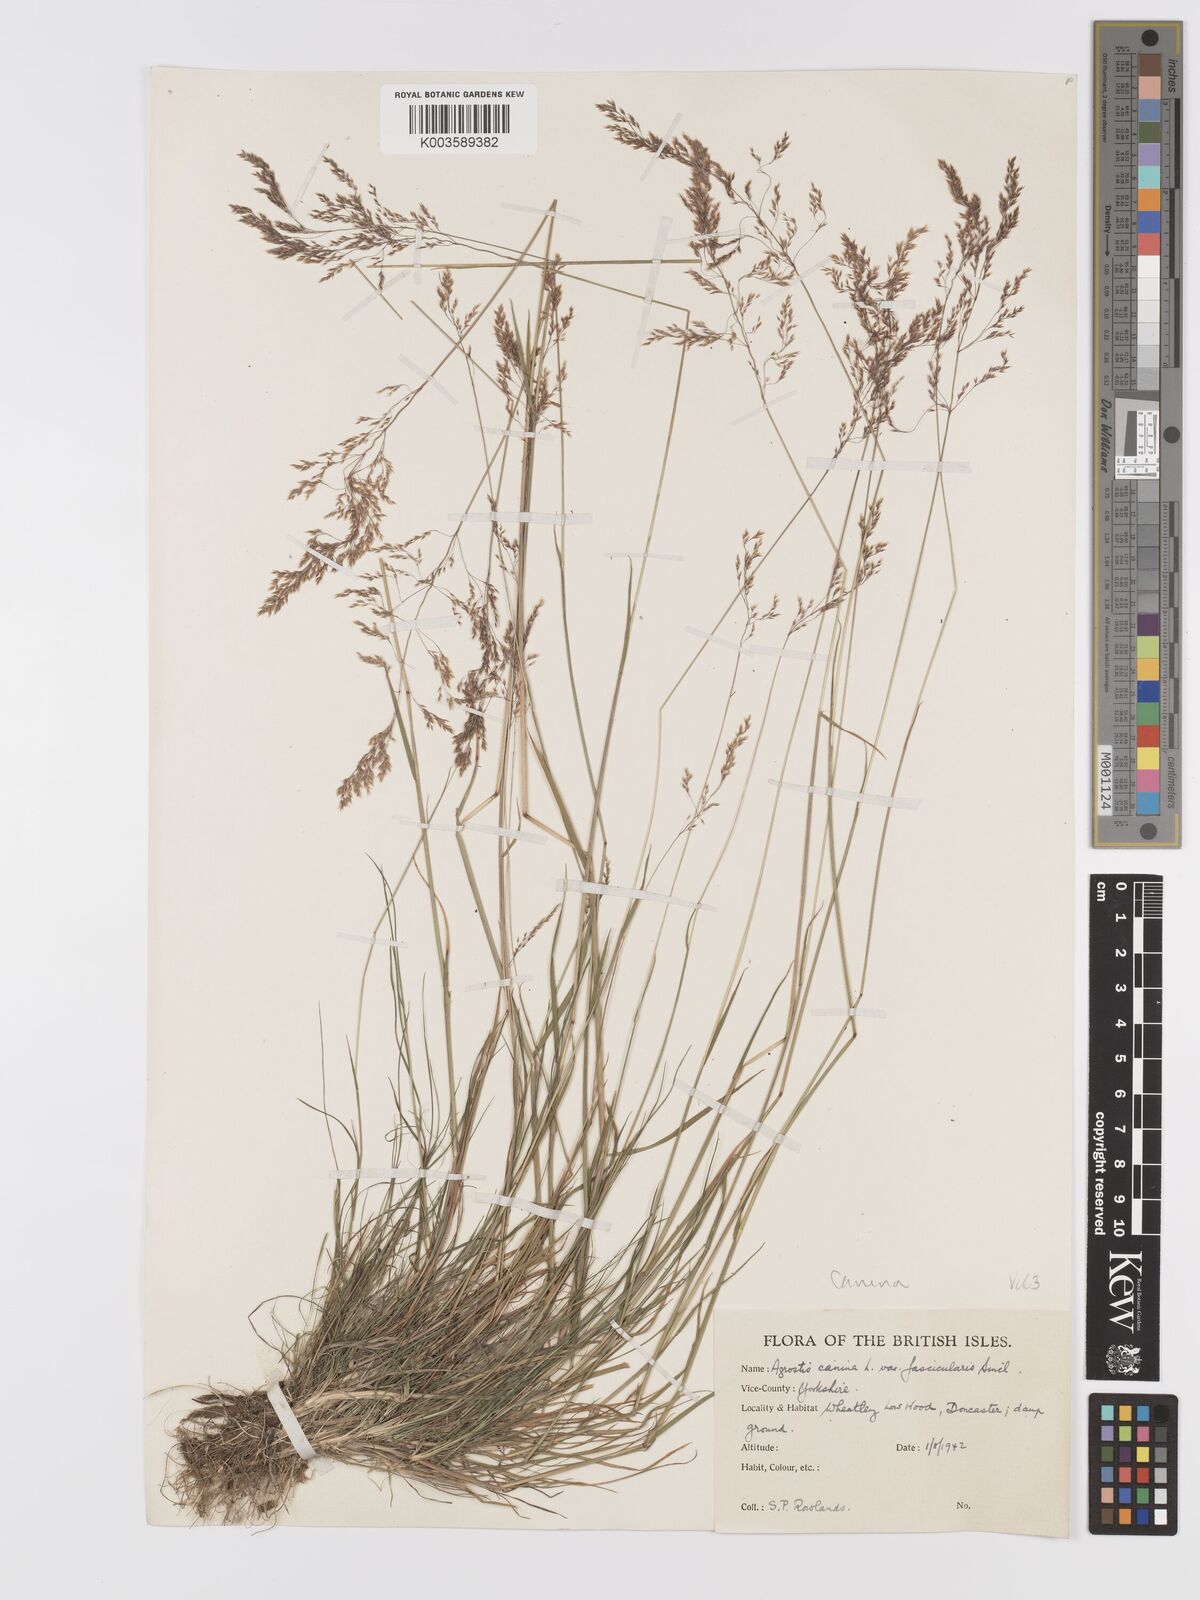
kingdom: Plantae
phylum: Tracheophyta
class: Liliopsida
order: Poales
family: Poaceae
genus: Agrostis
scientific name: Agrostis canina
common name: Velvet bent
